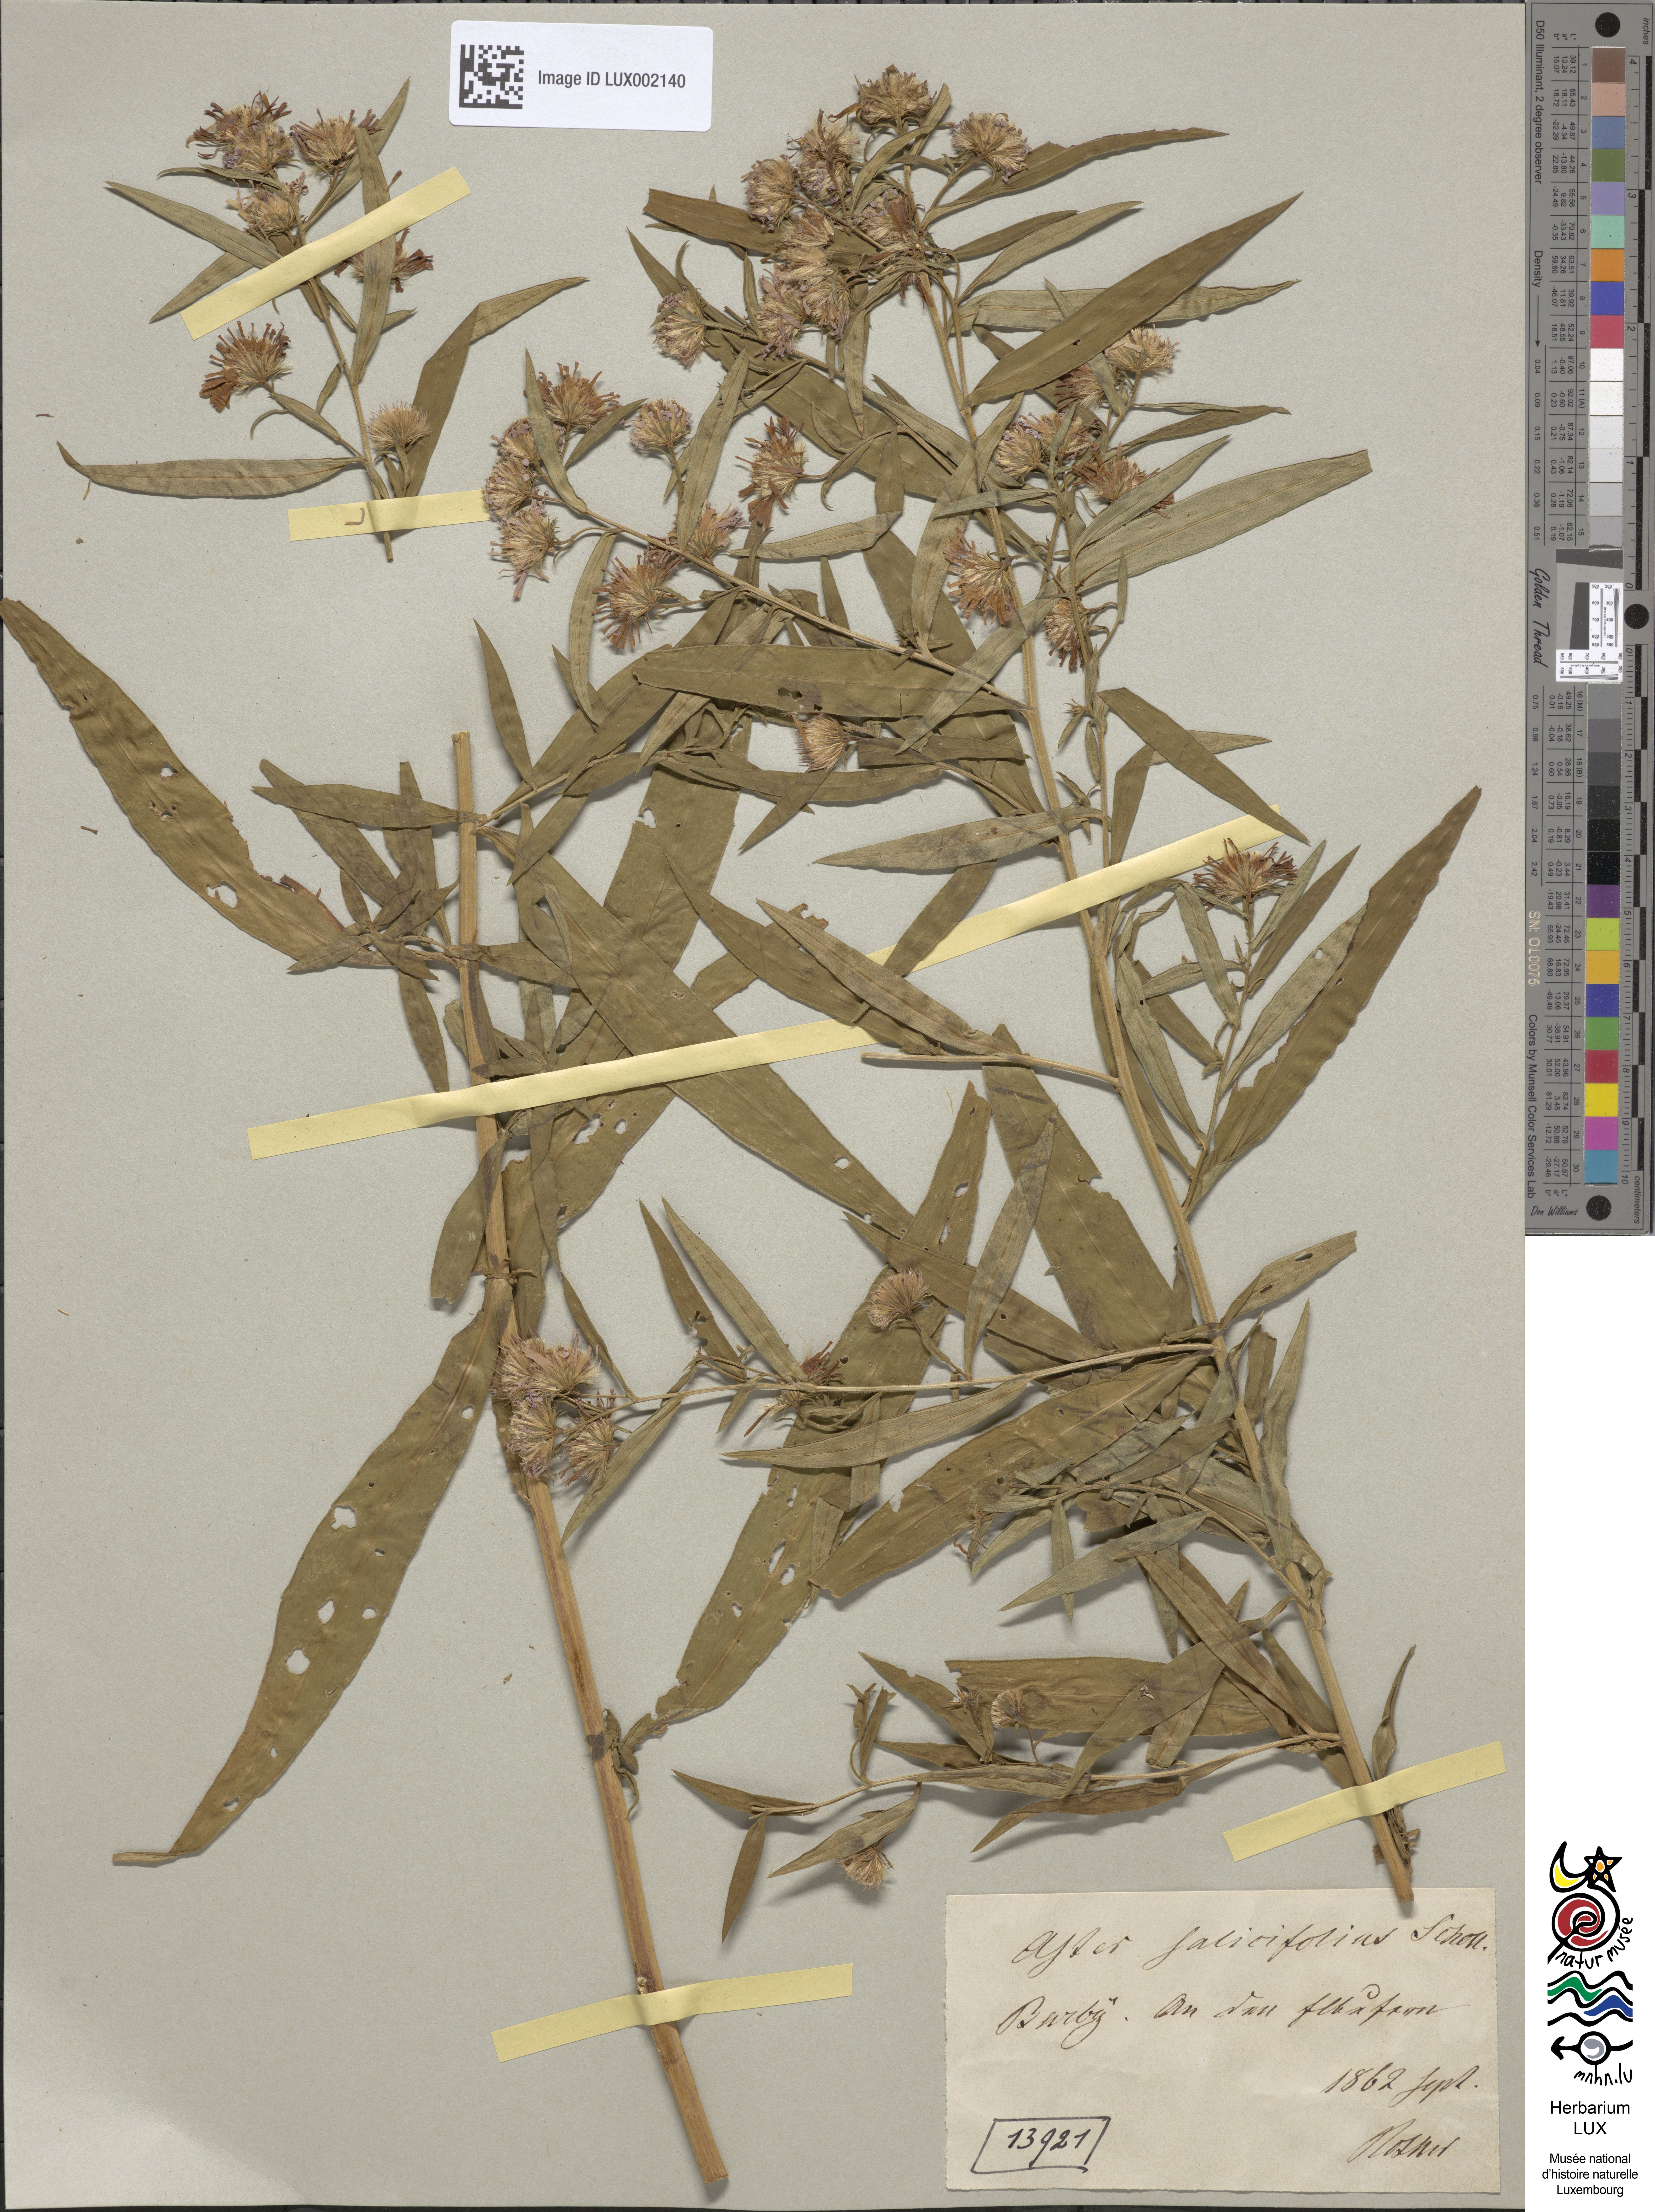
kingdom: Plantae
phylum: Tracheophyta
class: Magnoliopsida
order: Asterales
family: Asteraceae
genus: Symphyotrichum
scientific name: Symphyotrichum salignum
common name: Common michaelmas daisy
